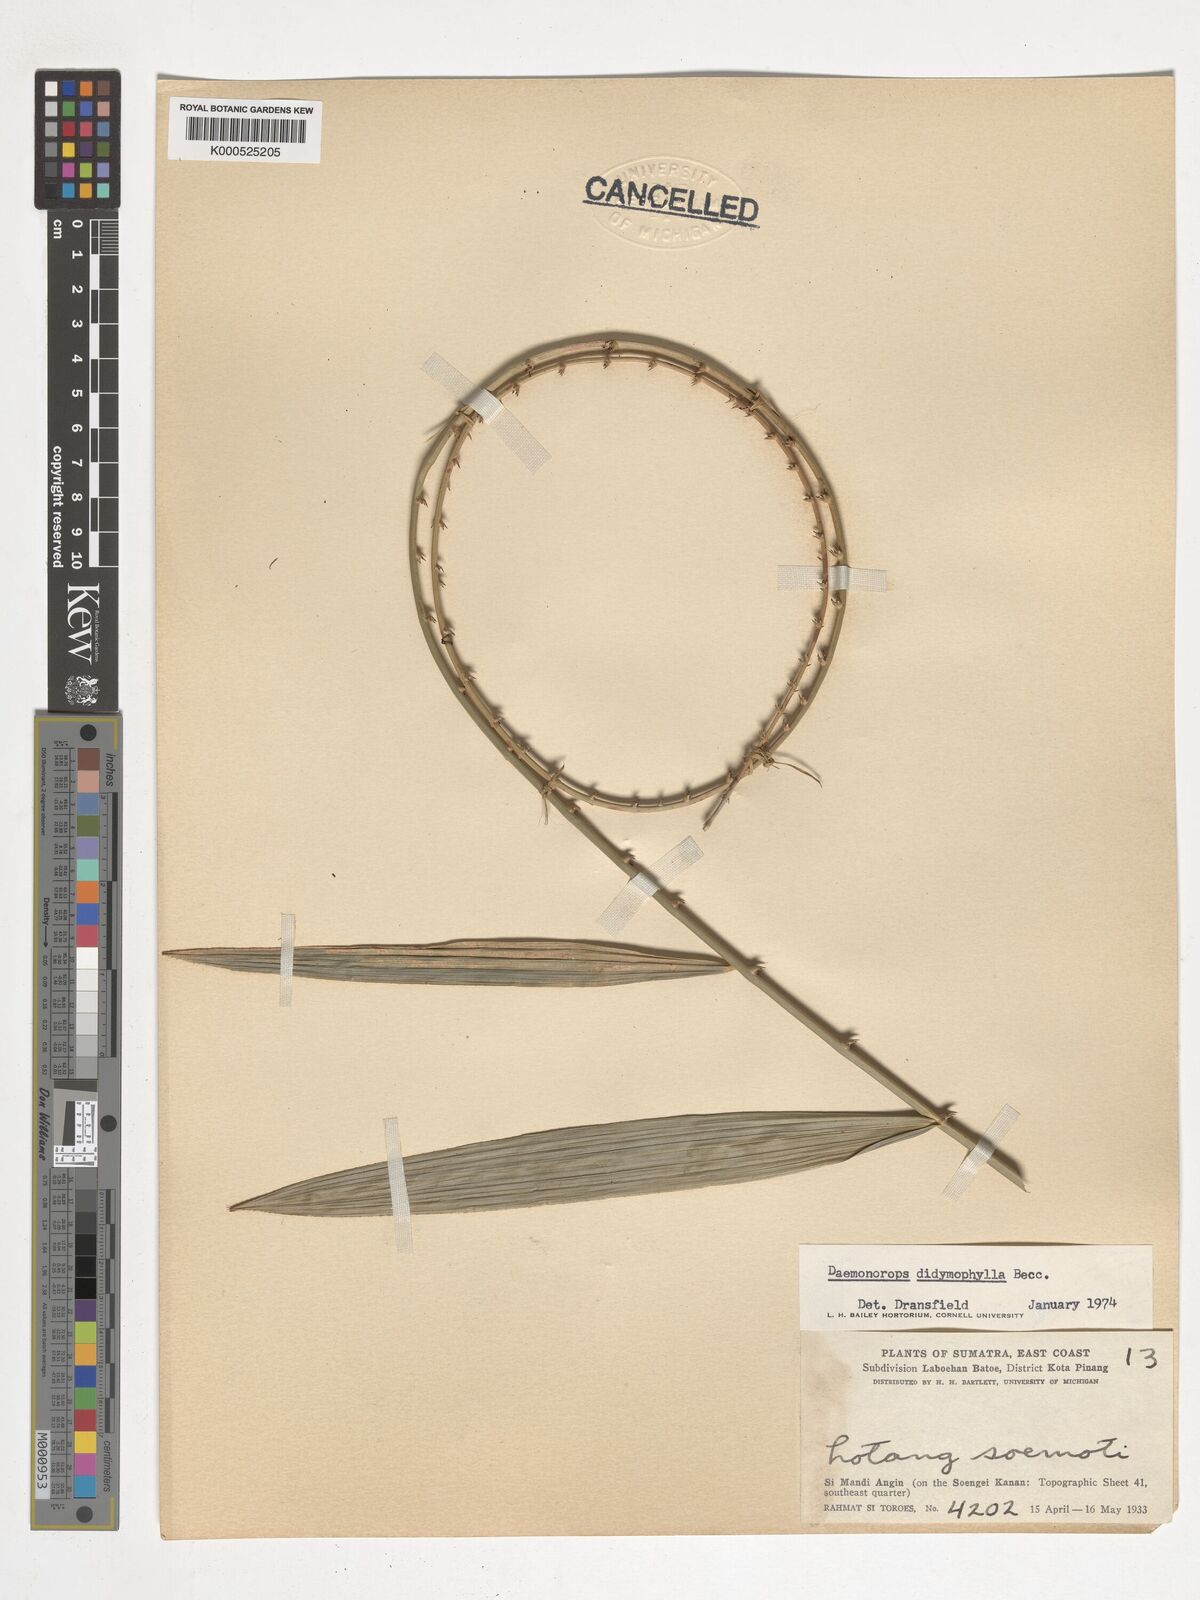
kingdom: Plantae
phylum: Tracheophyta
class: Liliopsida
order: Arecales
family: Arecaceae
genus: Calamus
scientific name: Calamus gracilipes
